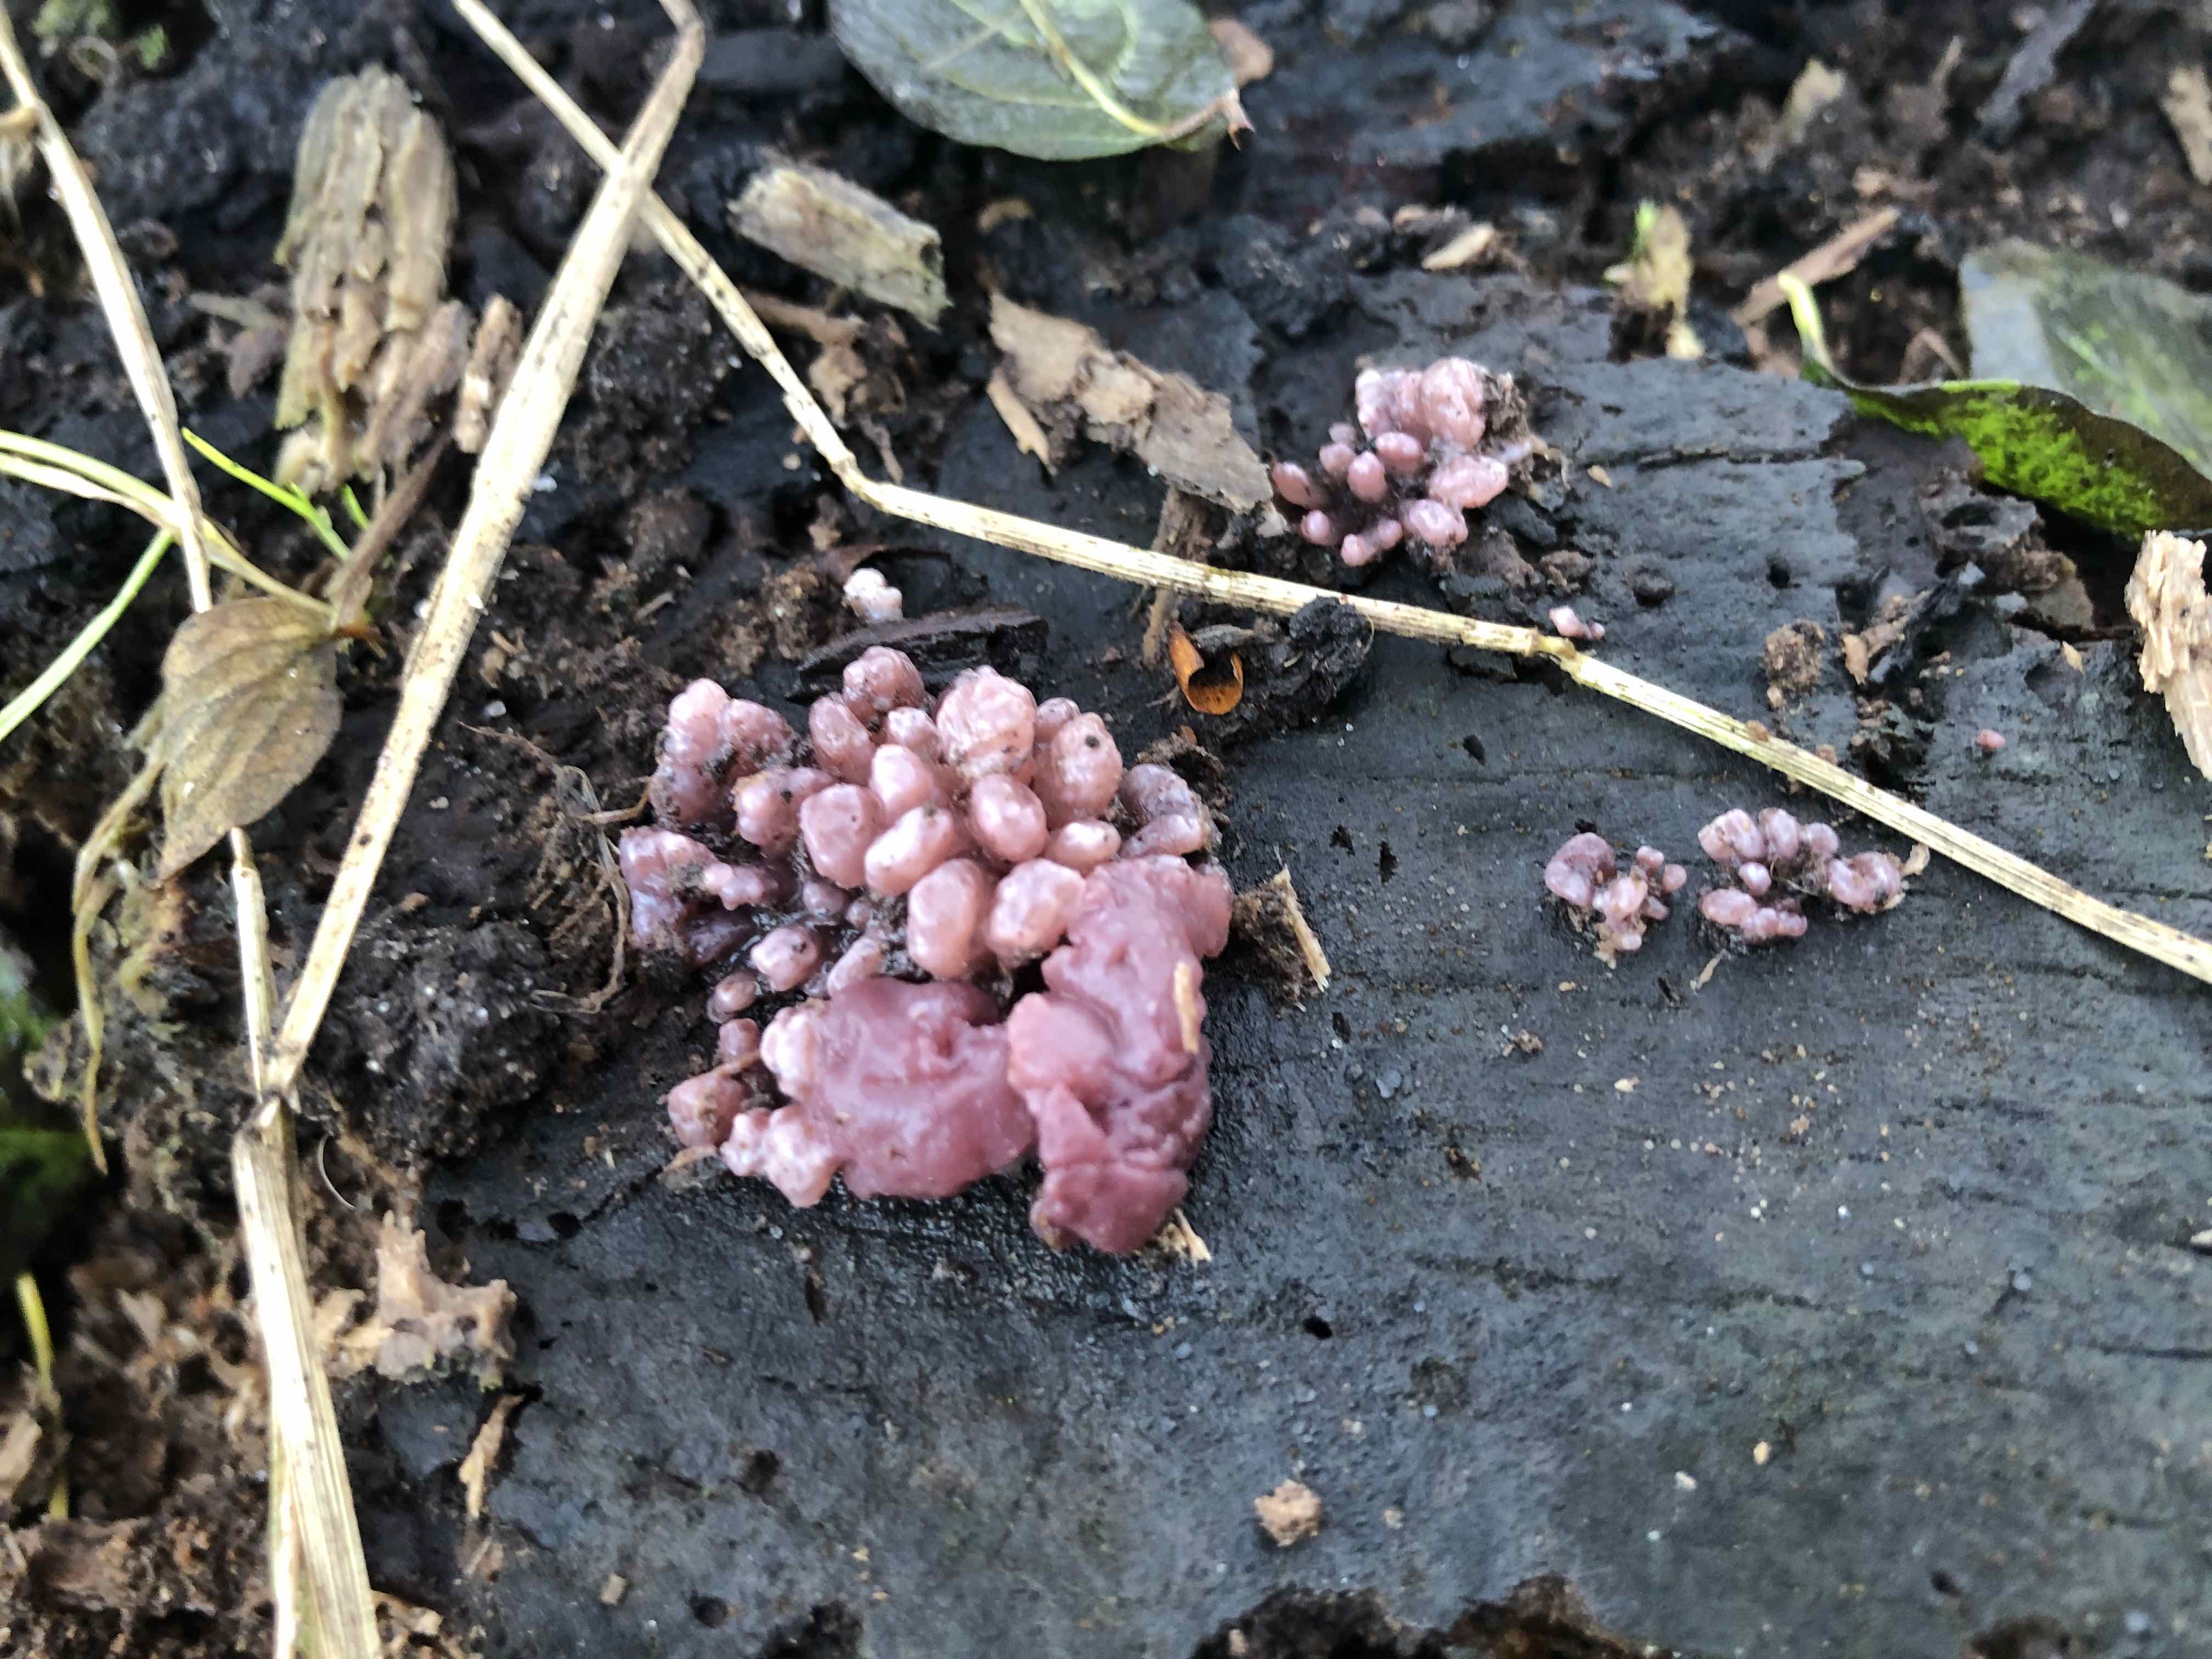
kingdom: Fungi
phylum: Ascomycota
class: Leotiomycetes
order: Helotiales
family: Gelatinodiscaceae
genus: Ascocoryne
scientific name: Ascocoryne sarcoides
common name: rødlilla sejskive
